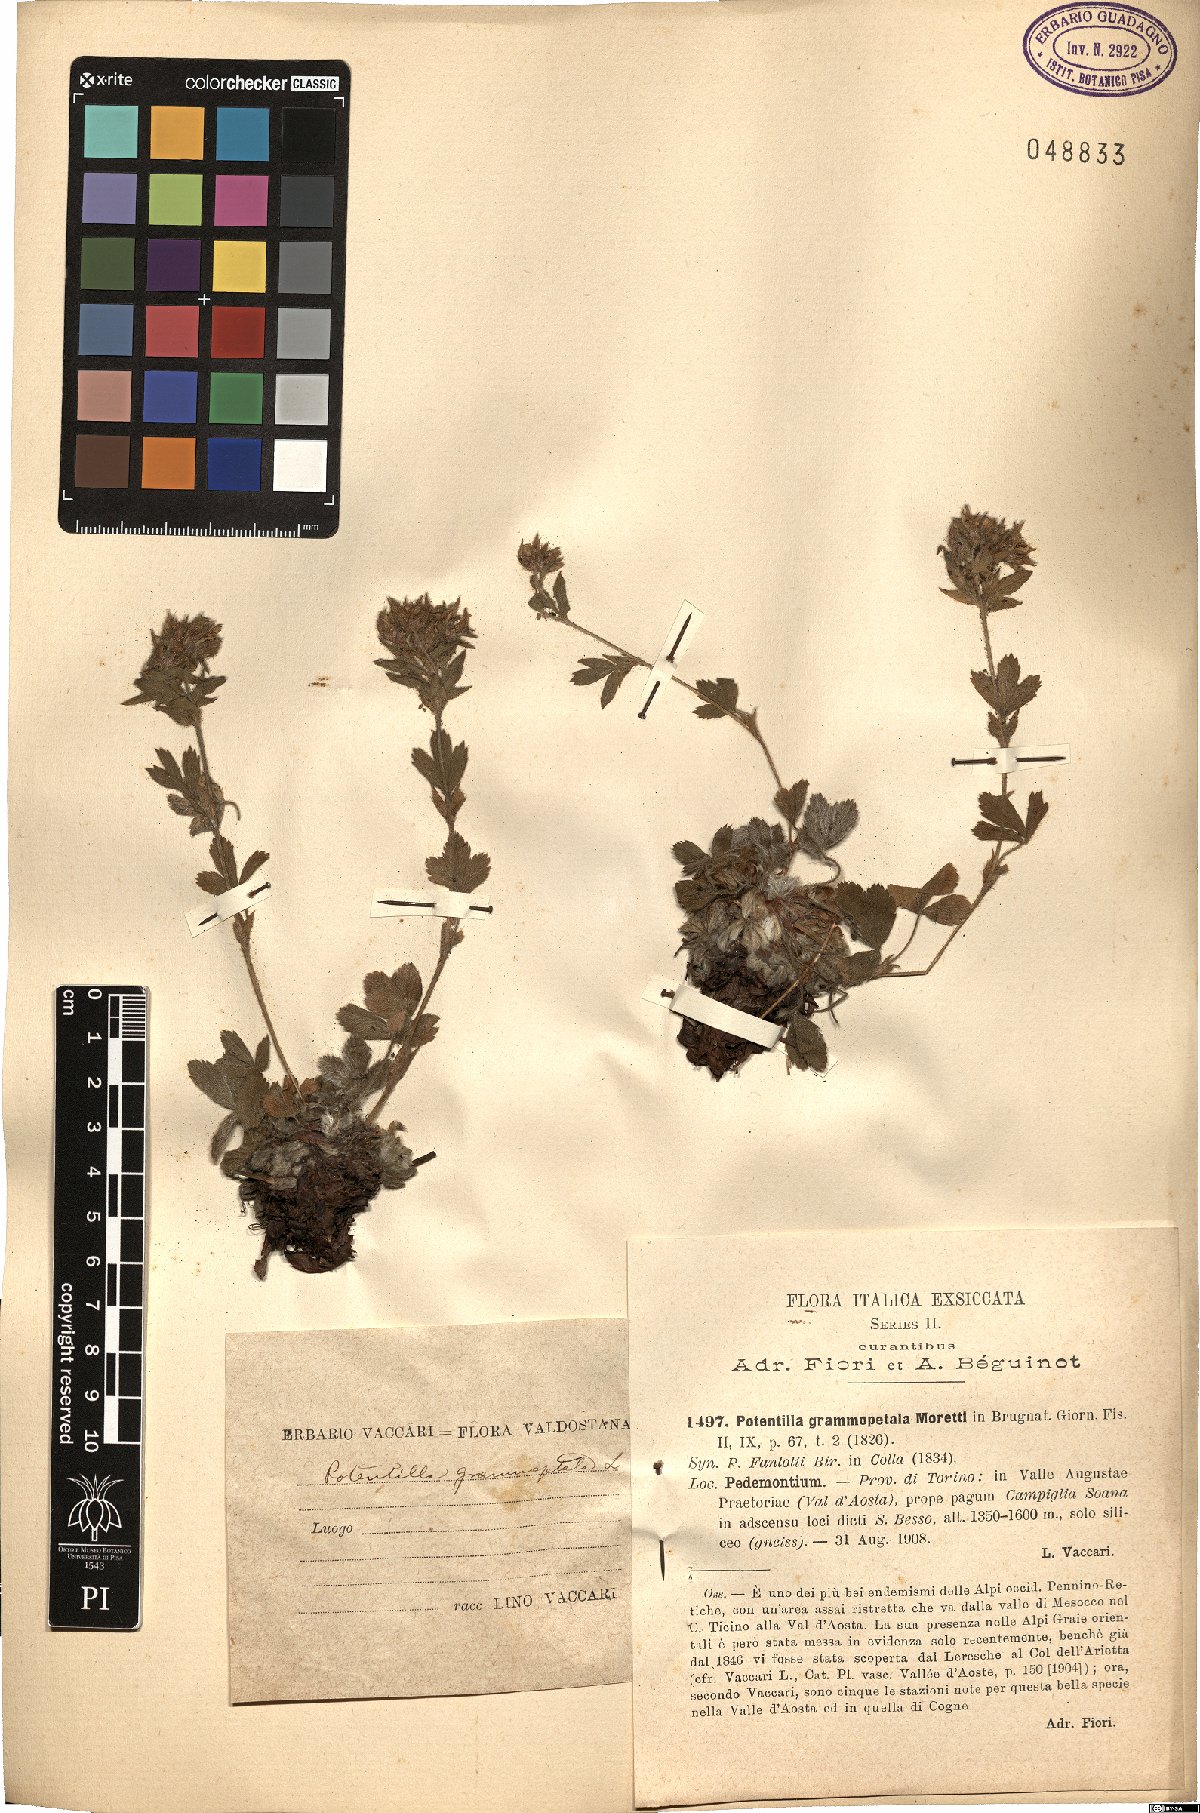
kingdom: Plantae
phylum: Tracheophyta
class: Magnoliopsida
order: Rosales
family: Rosaceae
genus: Potentilla
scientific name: Potentilla grammopetala
